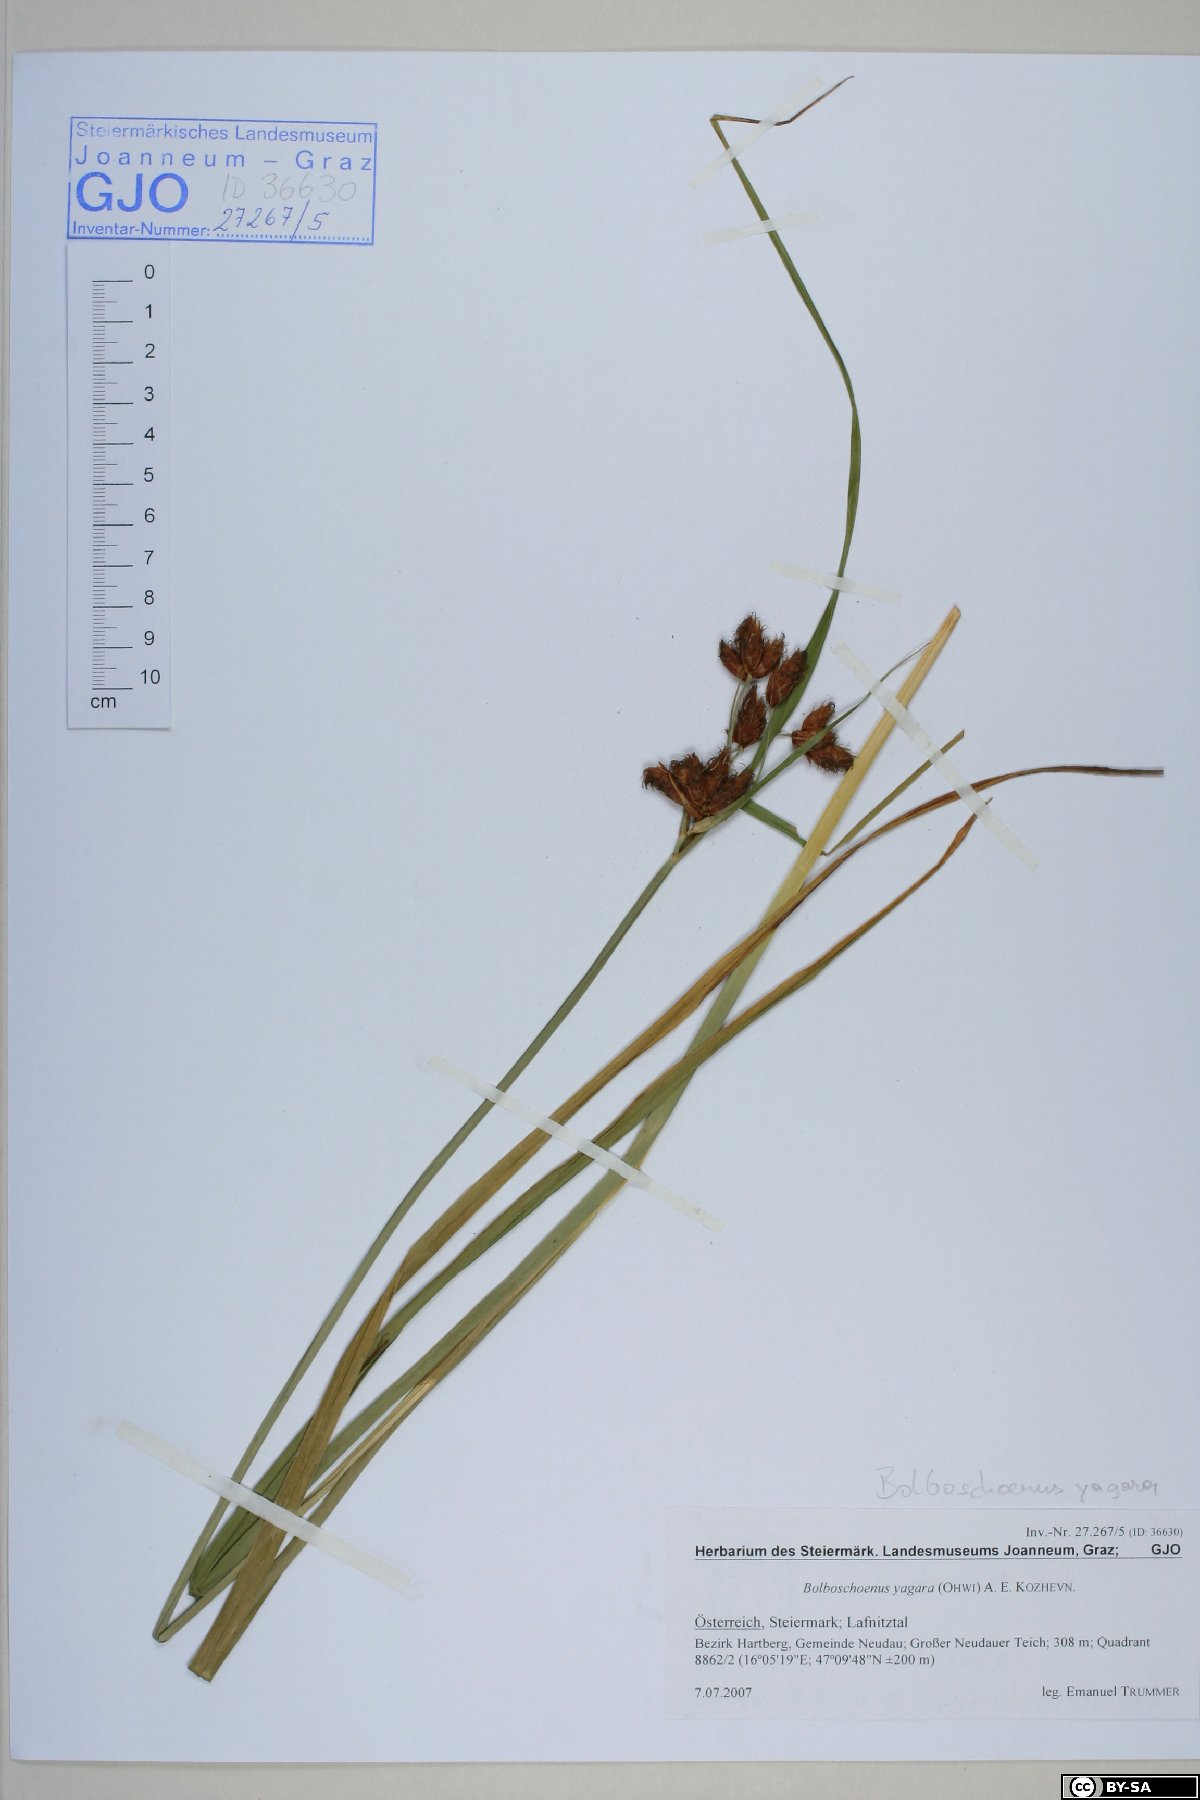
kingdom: Plantae
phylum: Tracheophyta
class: Liliopsida
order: Poales
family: Cyperaceae
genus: Bolboschoenus
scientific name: Bolboschoenus yagara
